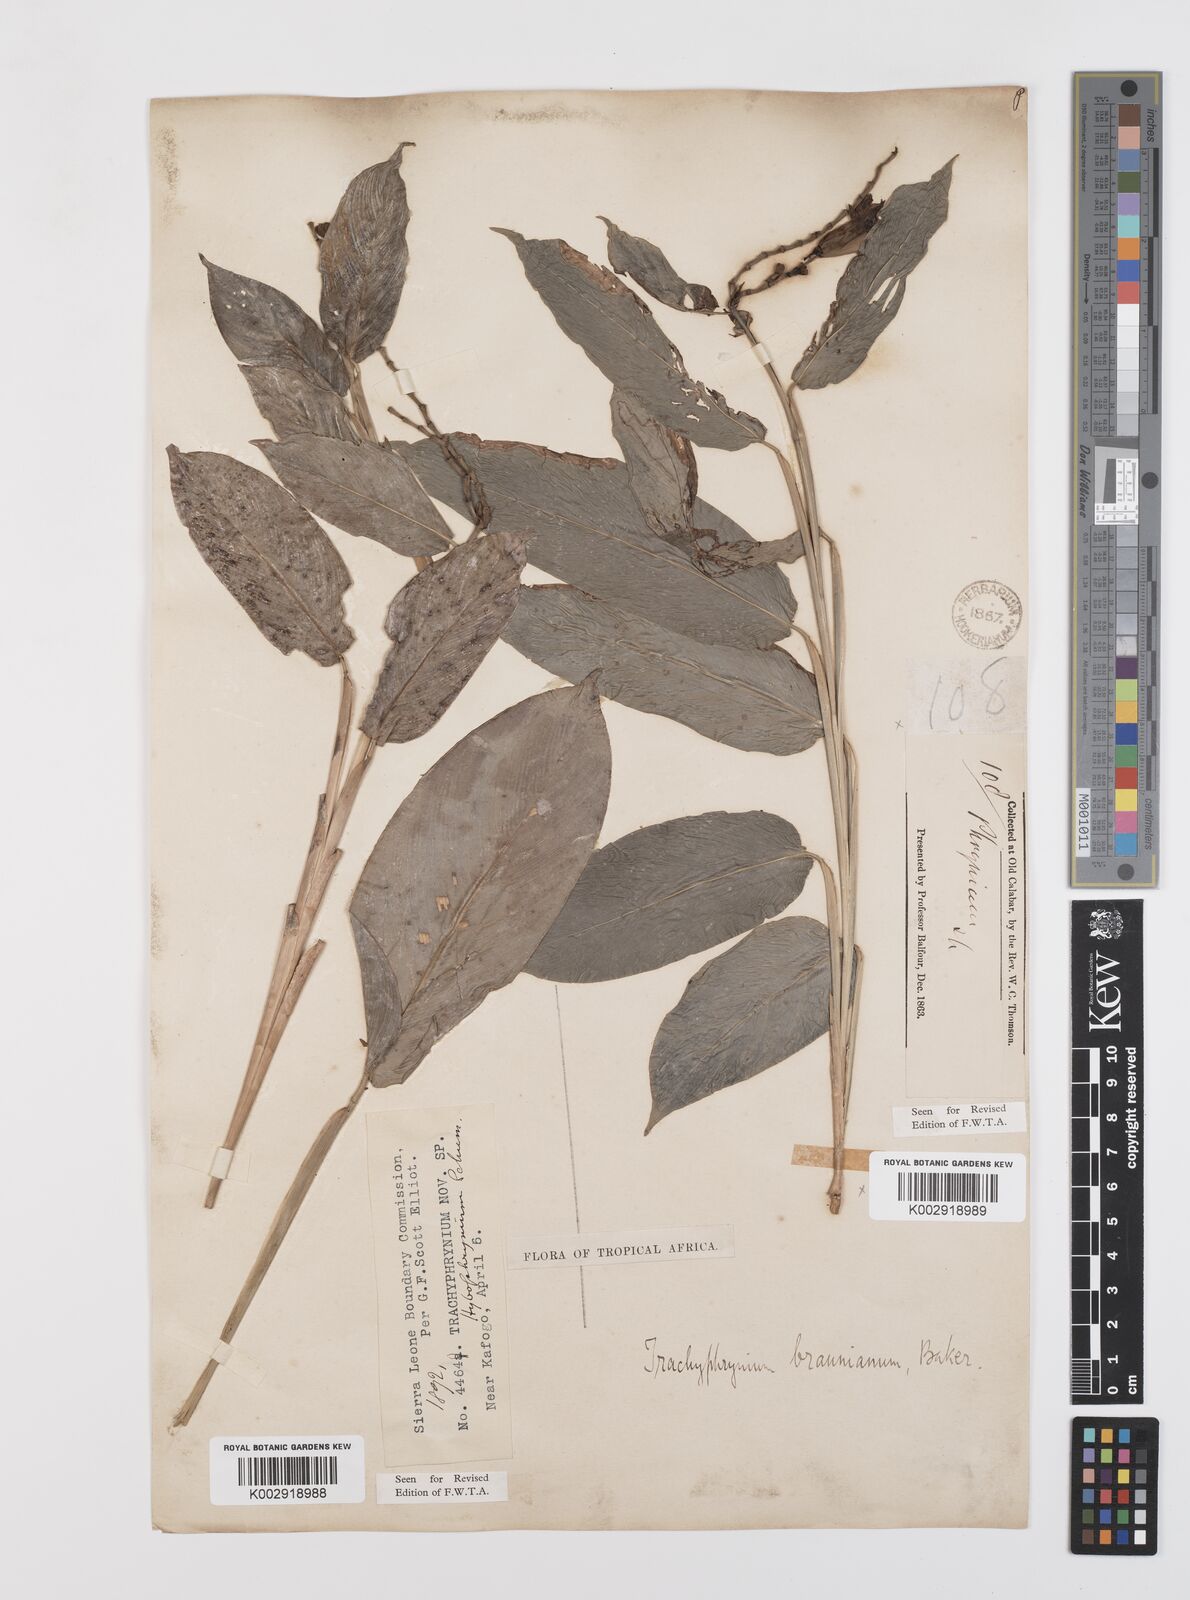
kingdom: Plantae
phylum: Tracheophyta
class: Liliopsida
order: Zingiberales
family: Marantaceae
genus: Trachyphrynium
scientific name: Trachyphrynium braunianum
